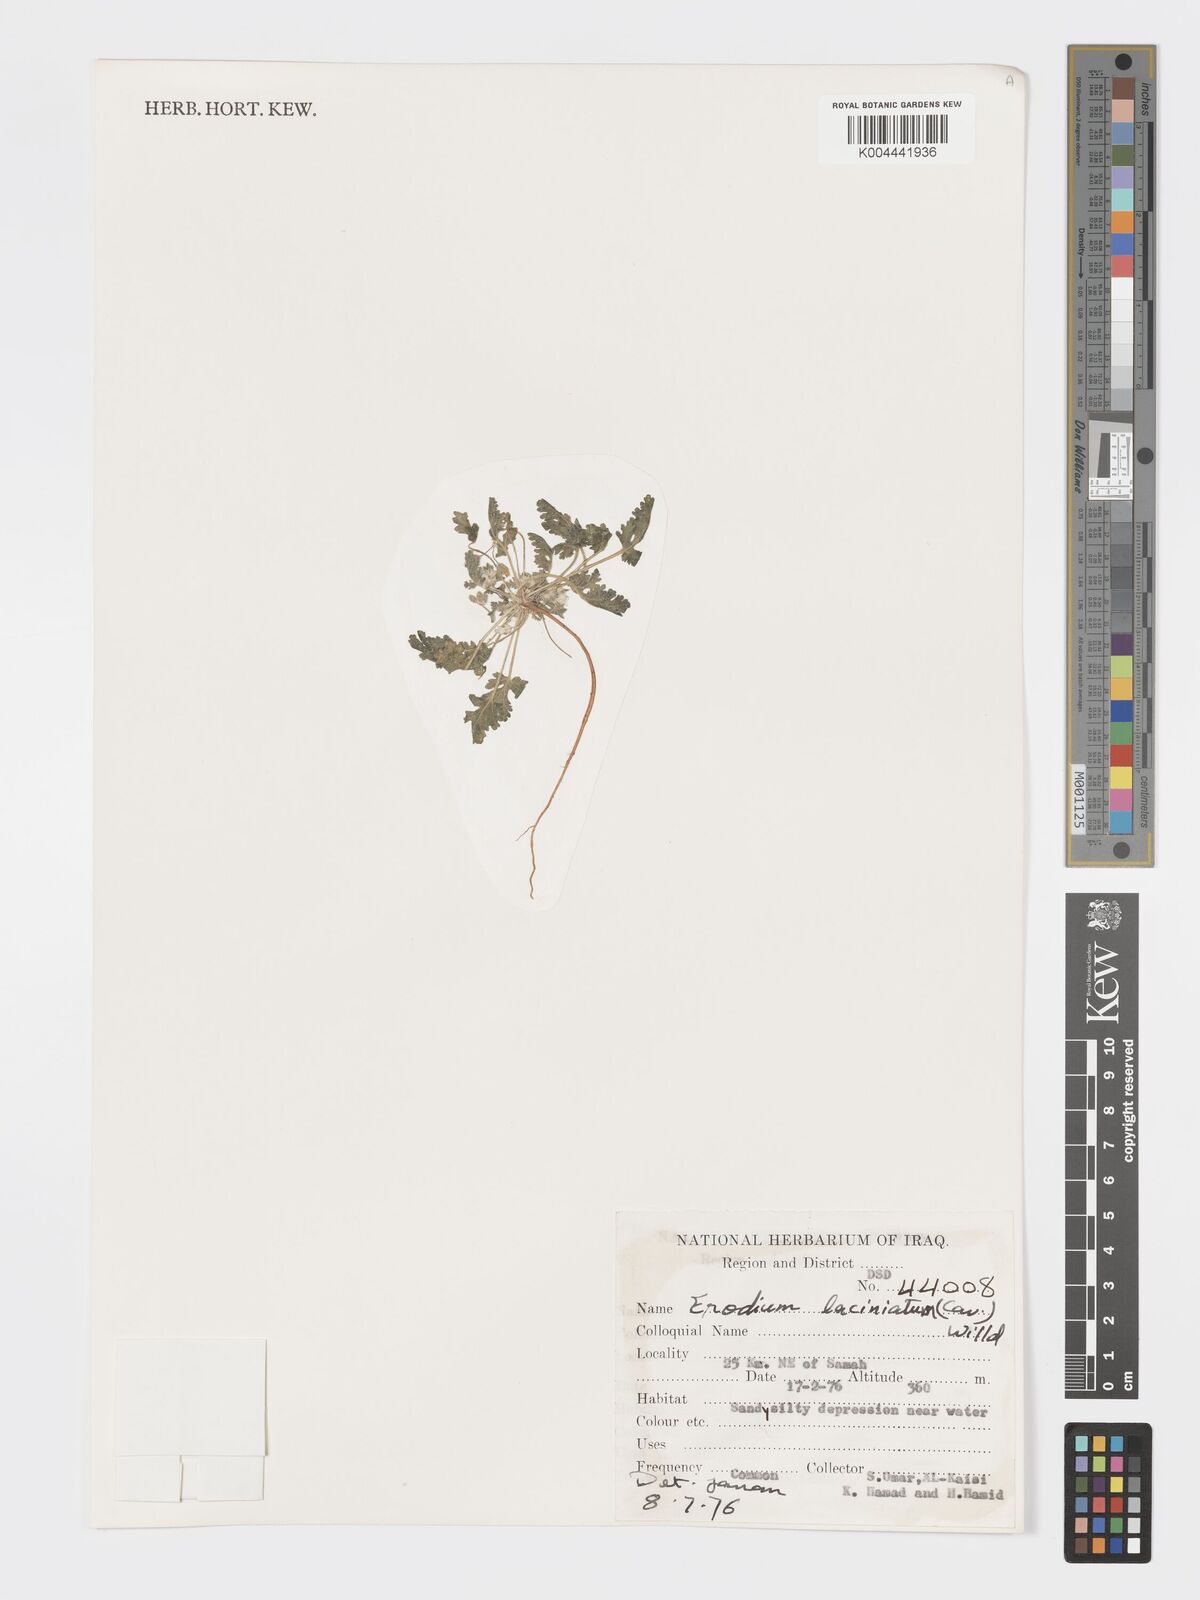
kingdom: Plantae
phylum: Tracheophyta
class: Magnoliopsida
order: Geraniales
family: Geraniaceae
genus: Erodium
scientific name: Erodium laciniatum
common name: Cutleaf stork's bill
